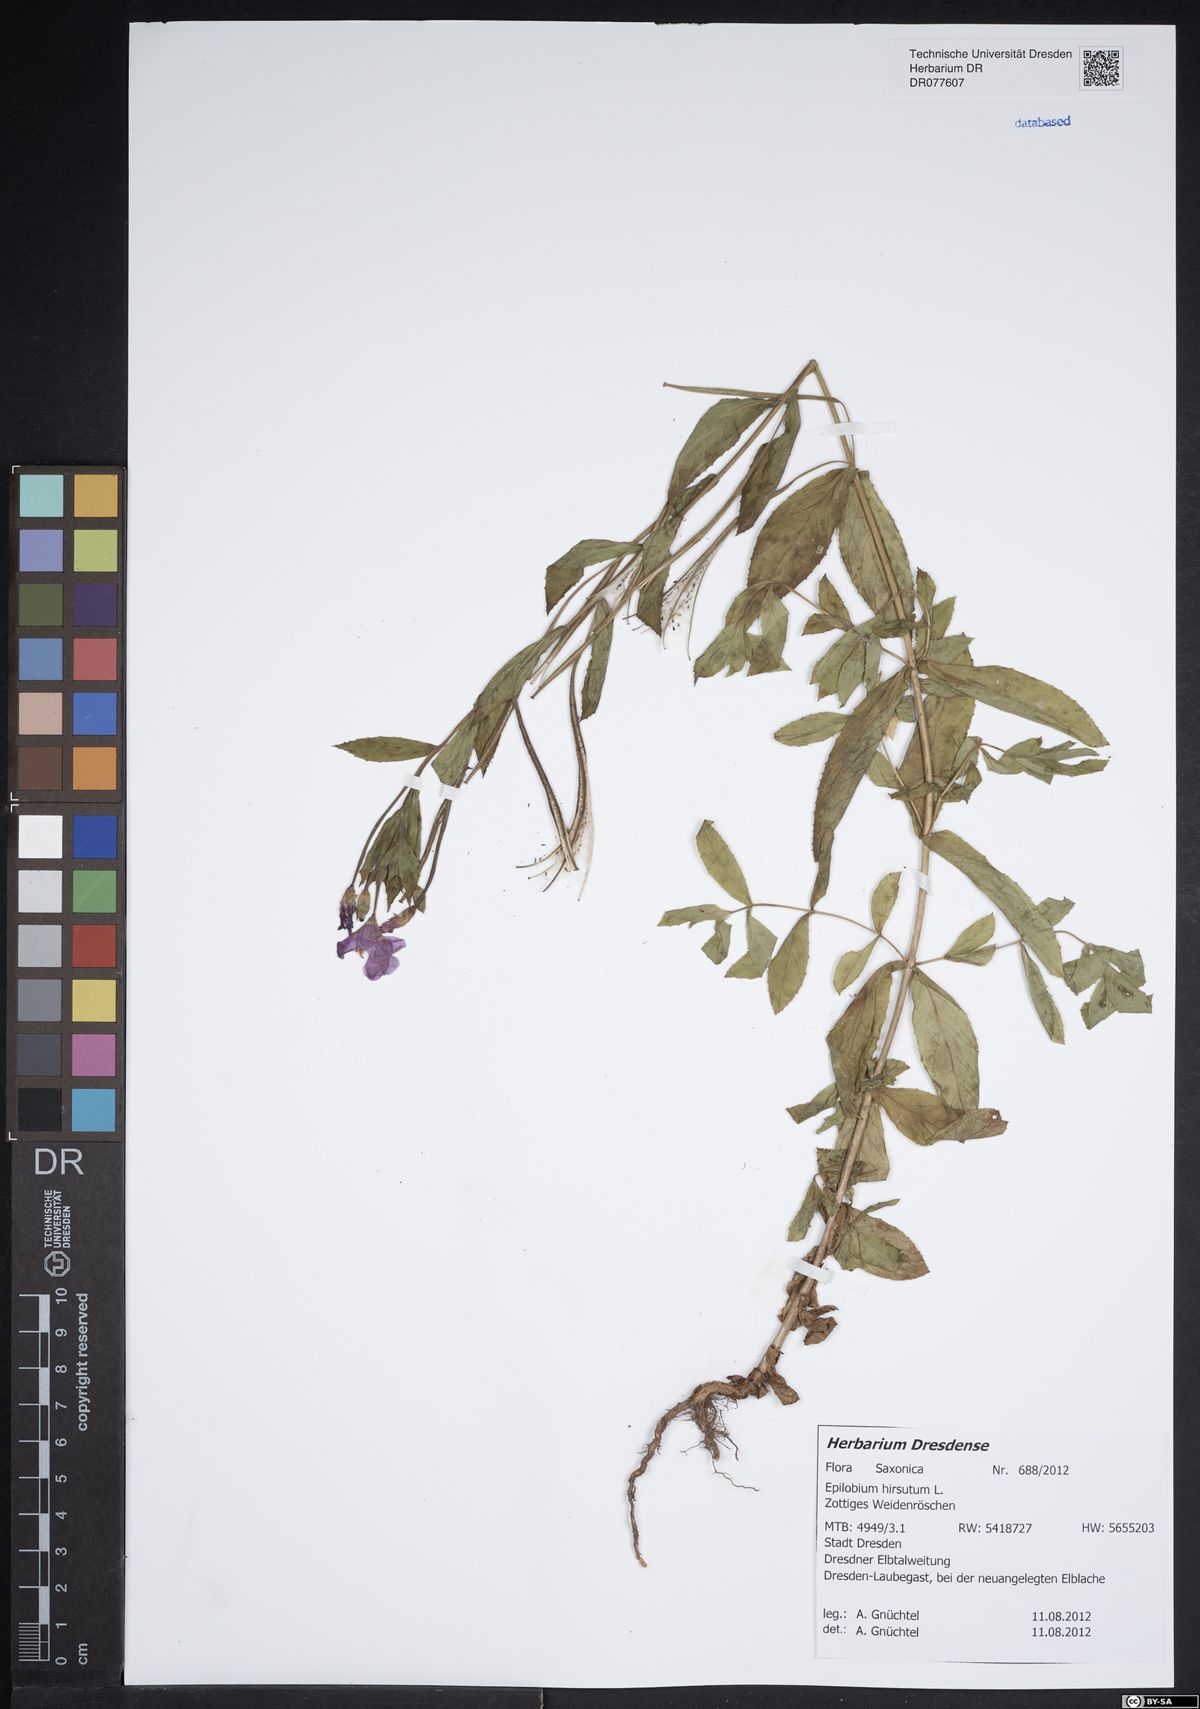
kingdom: Plantae
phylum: Tracheophyta
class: Magnoliopsida
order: Myrtales
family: Onagraceae
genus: Epilobium
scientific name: Epilobium hirsutum
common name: Great willowherb
